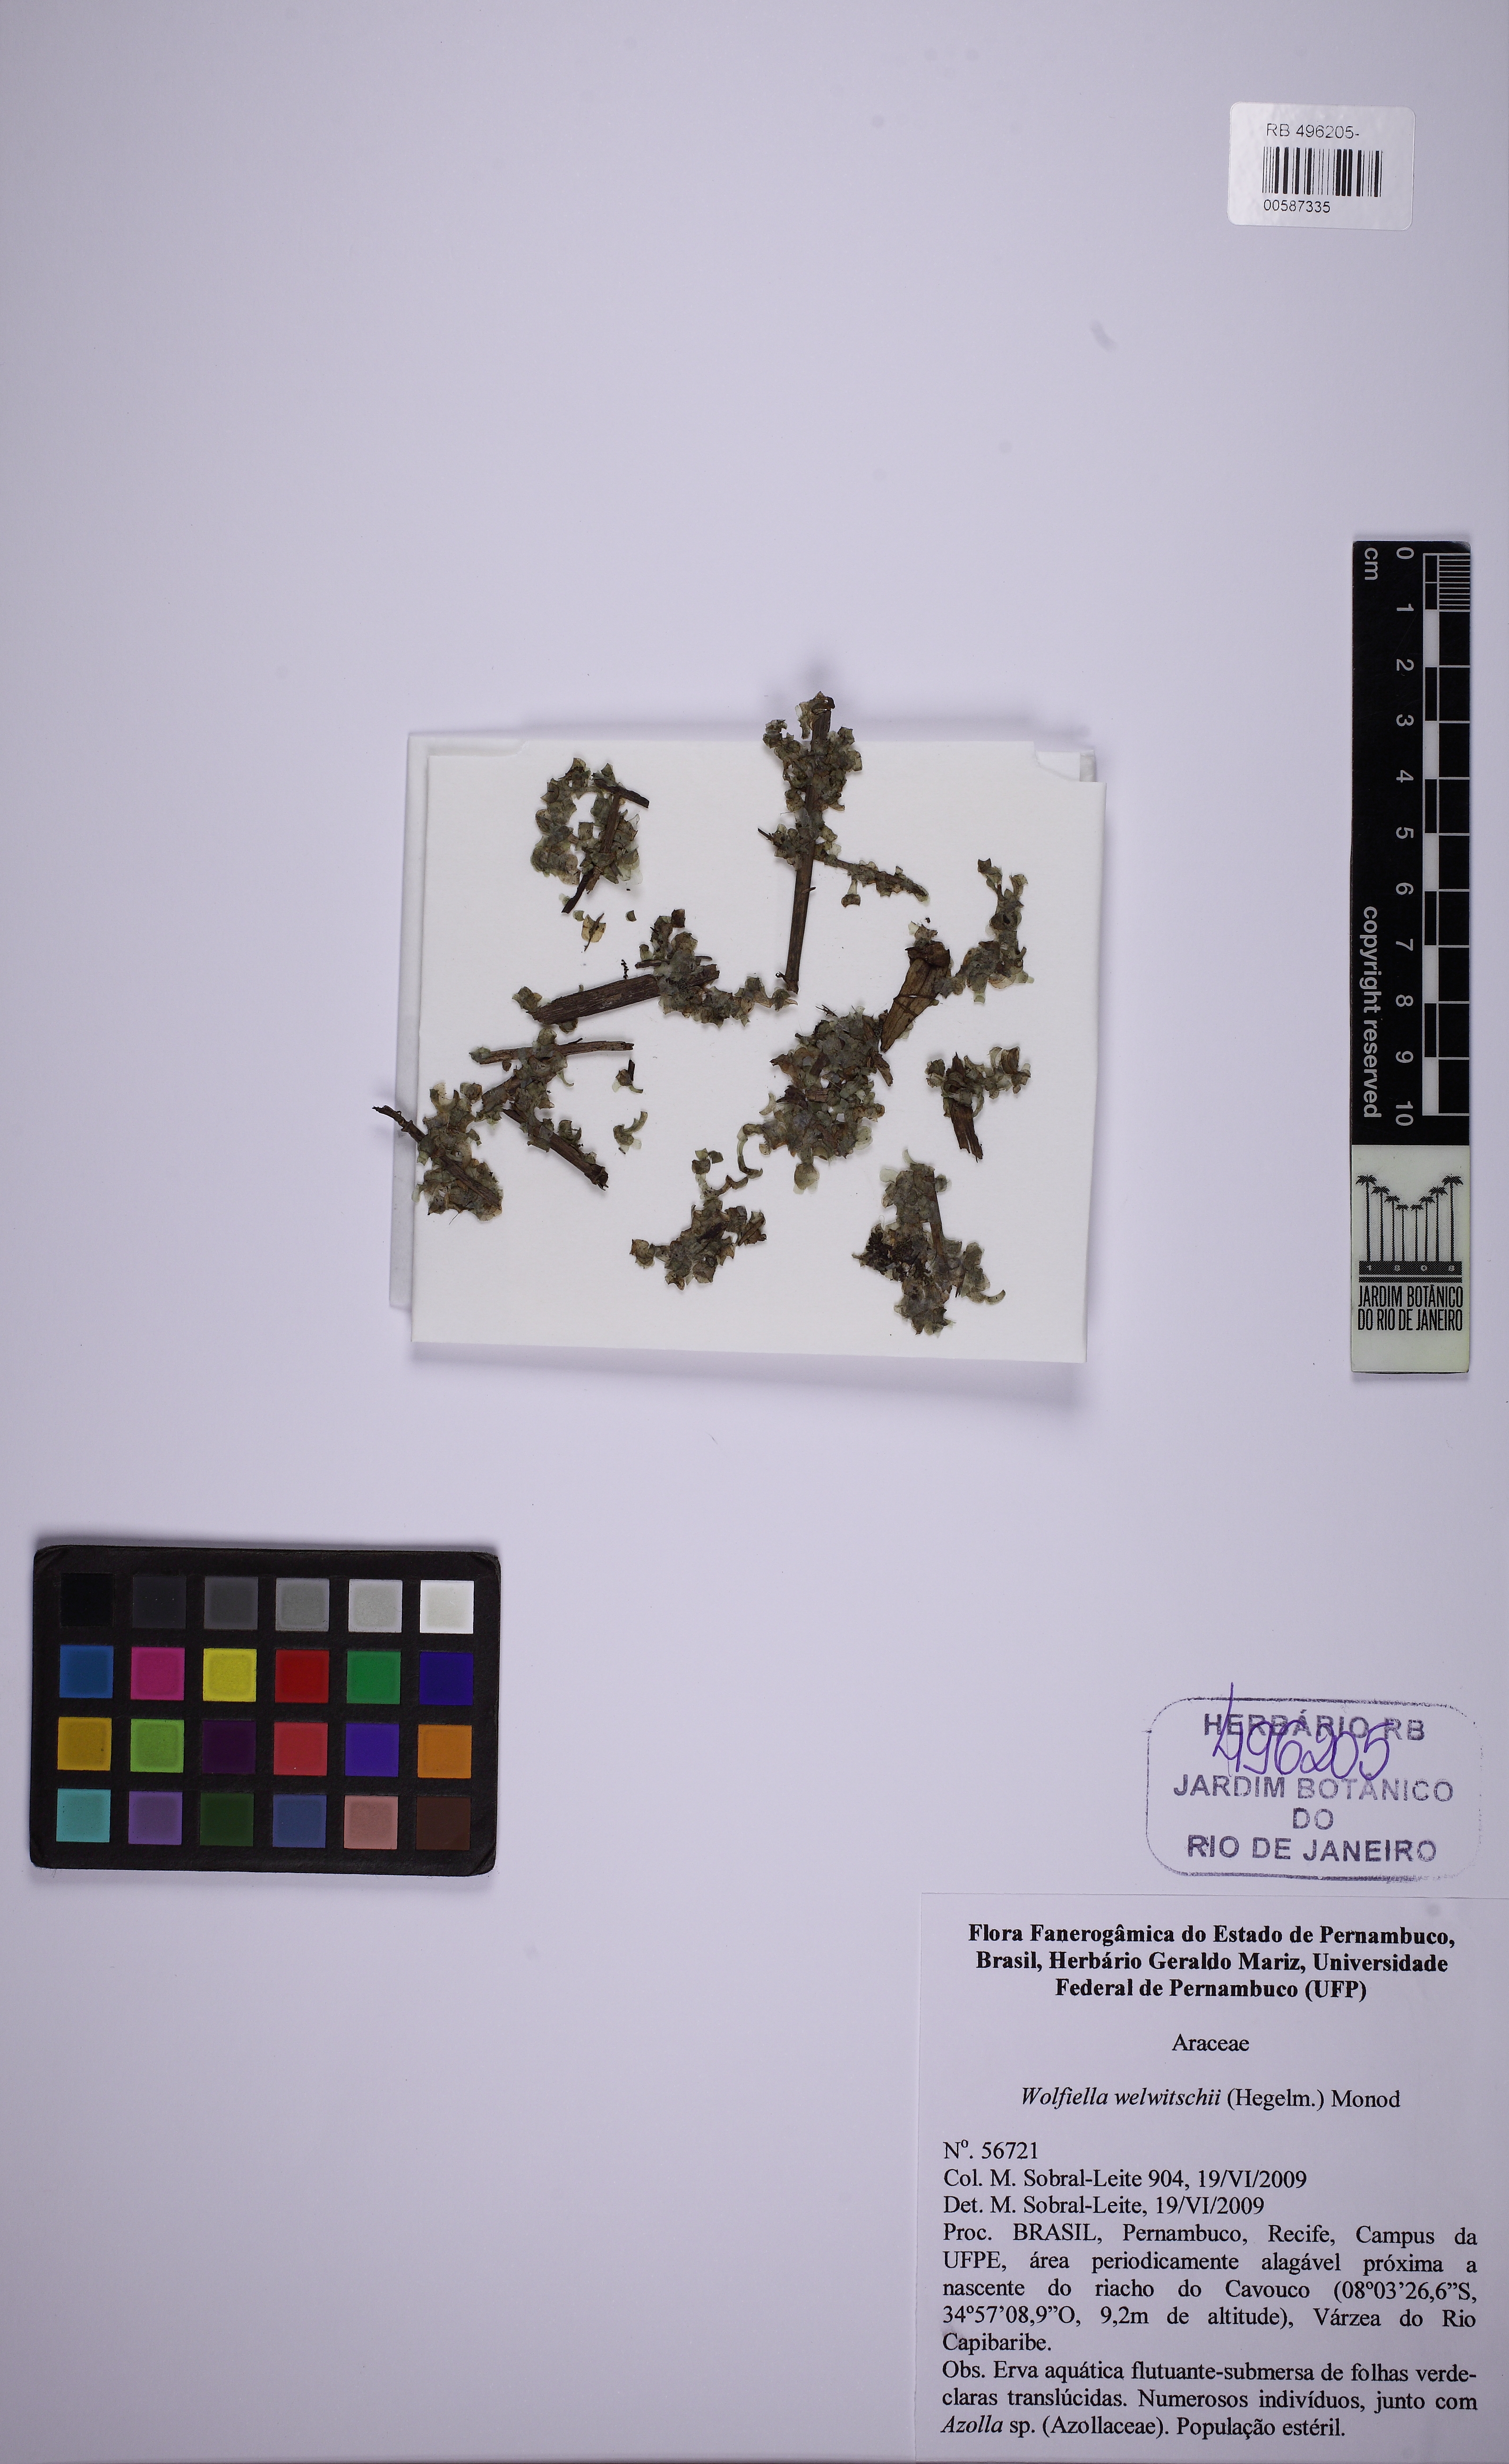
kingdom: Plantae
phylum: Tracheophyta
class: Liliopsida
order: Alismatales
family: Araceae
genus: Wolffiella
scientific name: Wolffiella welwitschii
